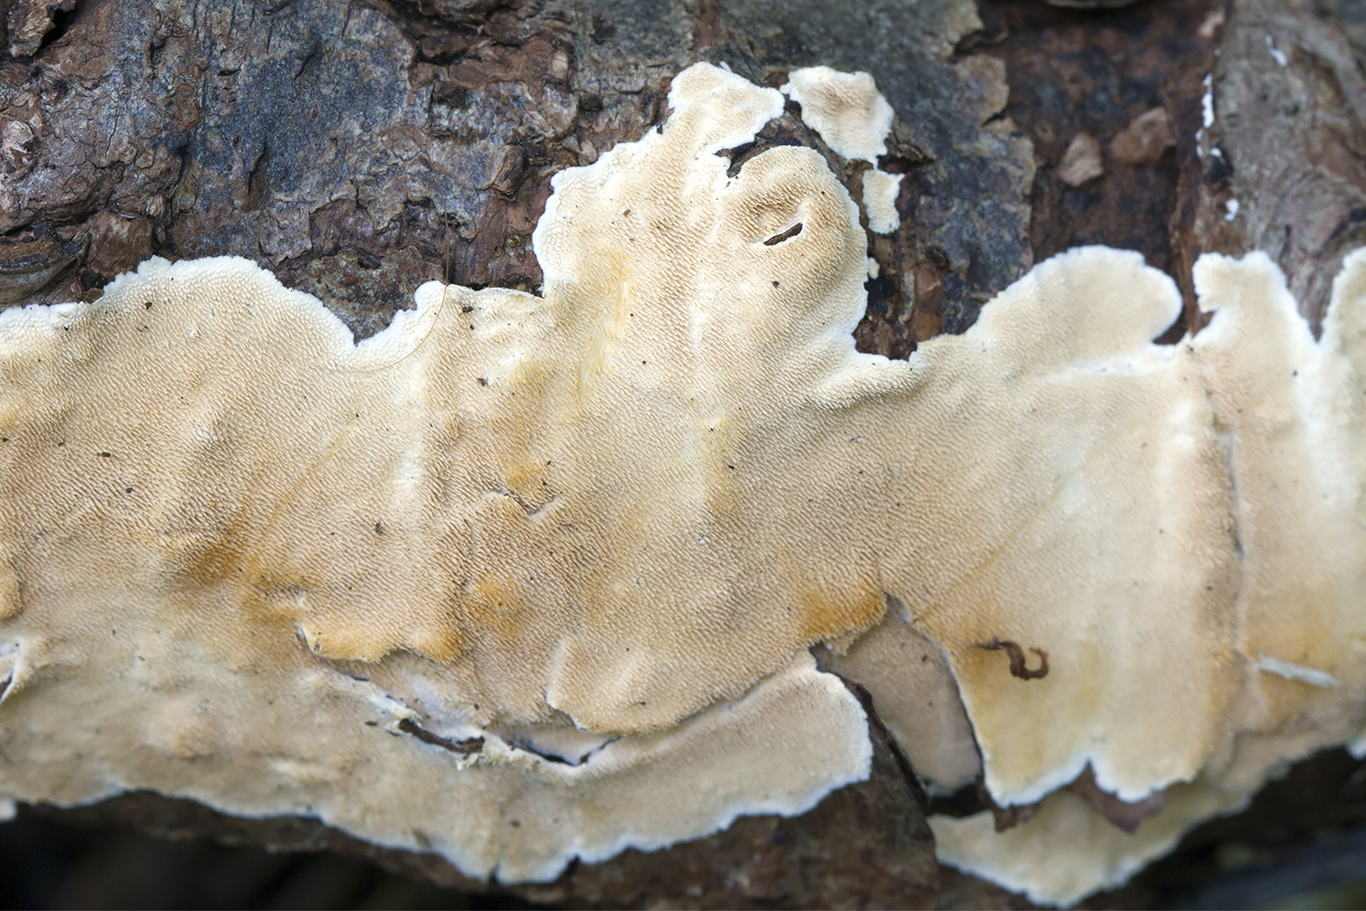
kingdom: Fungi
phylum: Basidiomycota
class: Agaricomycetes
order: Polyporales
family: Steccherinaceae
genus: Steccherinum
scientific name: Steccherinum ochraceum
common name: almindelig skønpig
